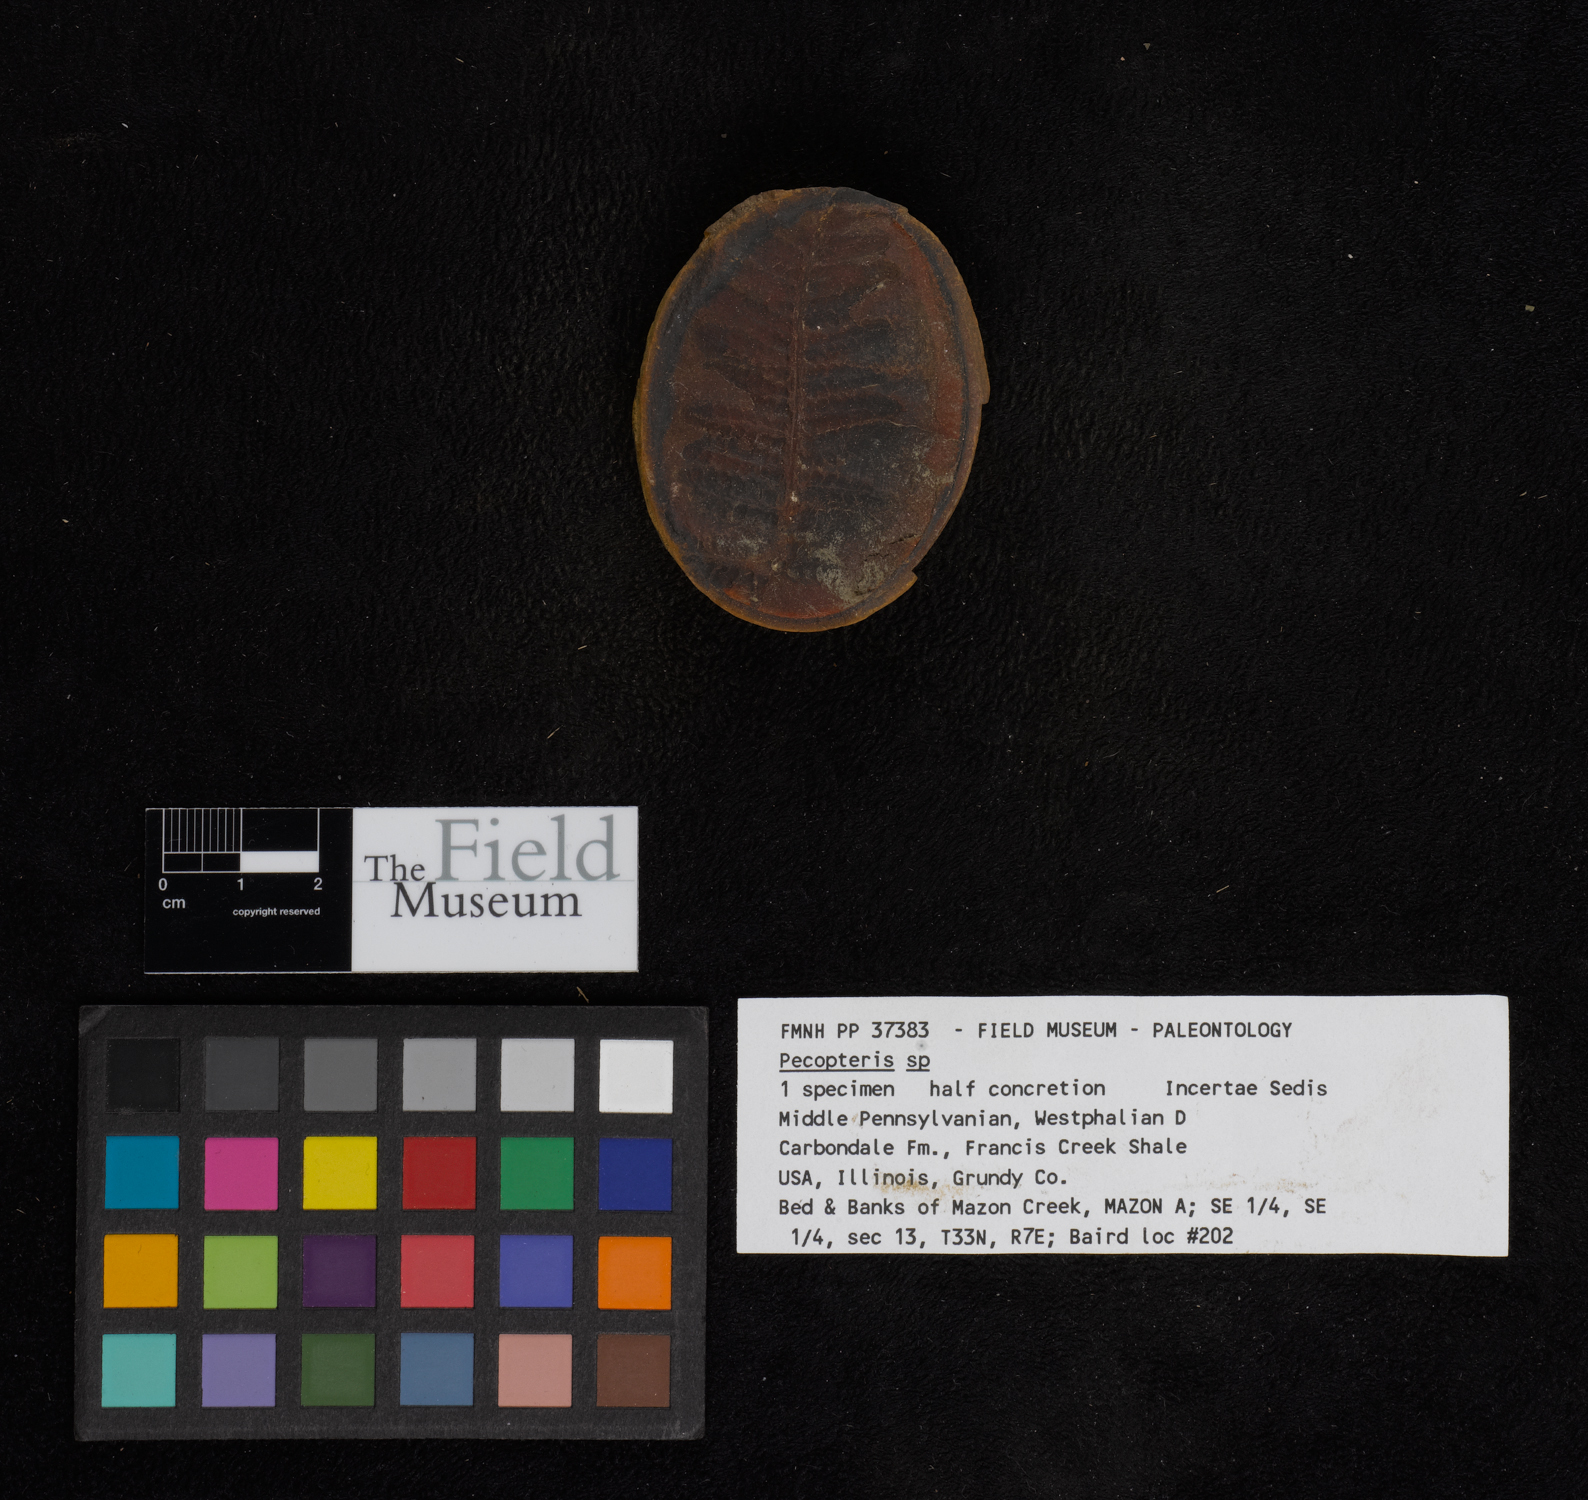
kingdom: Plantae
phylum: Tracheophyta
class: Polypodiopsida
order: Marattiales
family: Asterothecaceae
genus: Pecopteris
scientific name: Pecopteris
